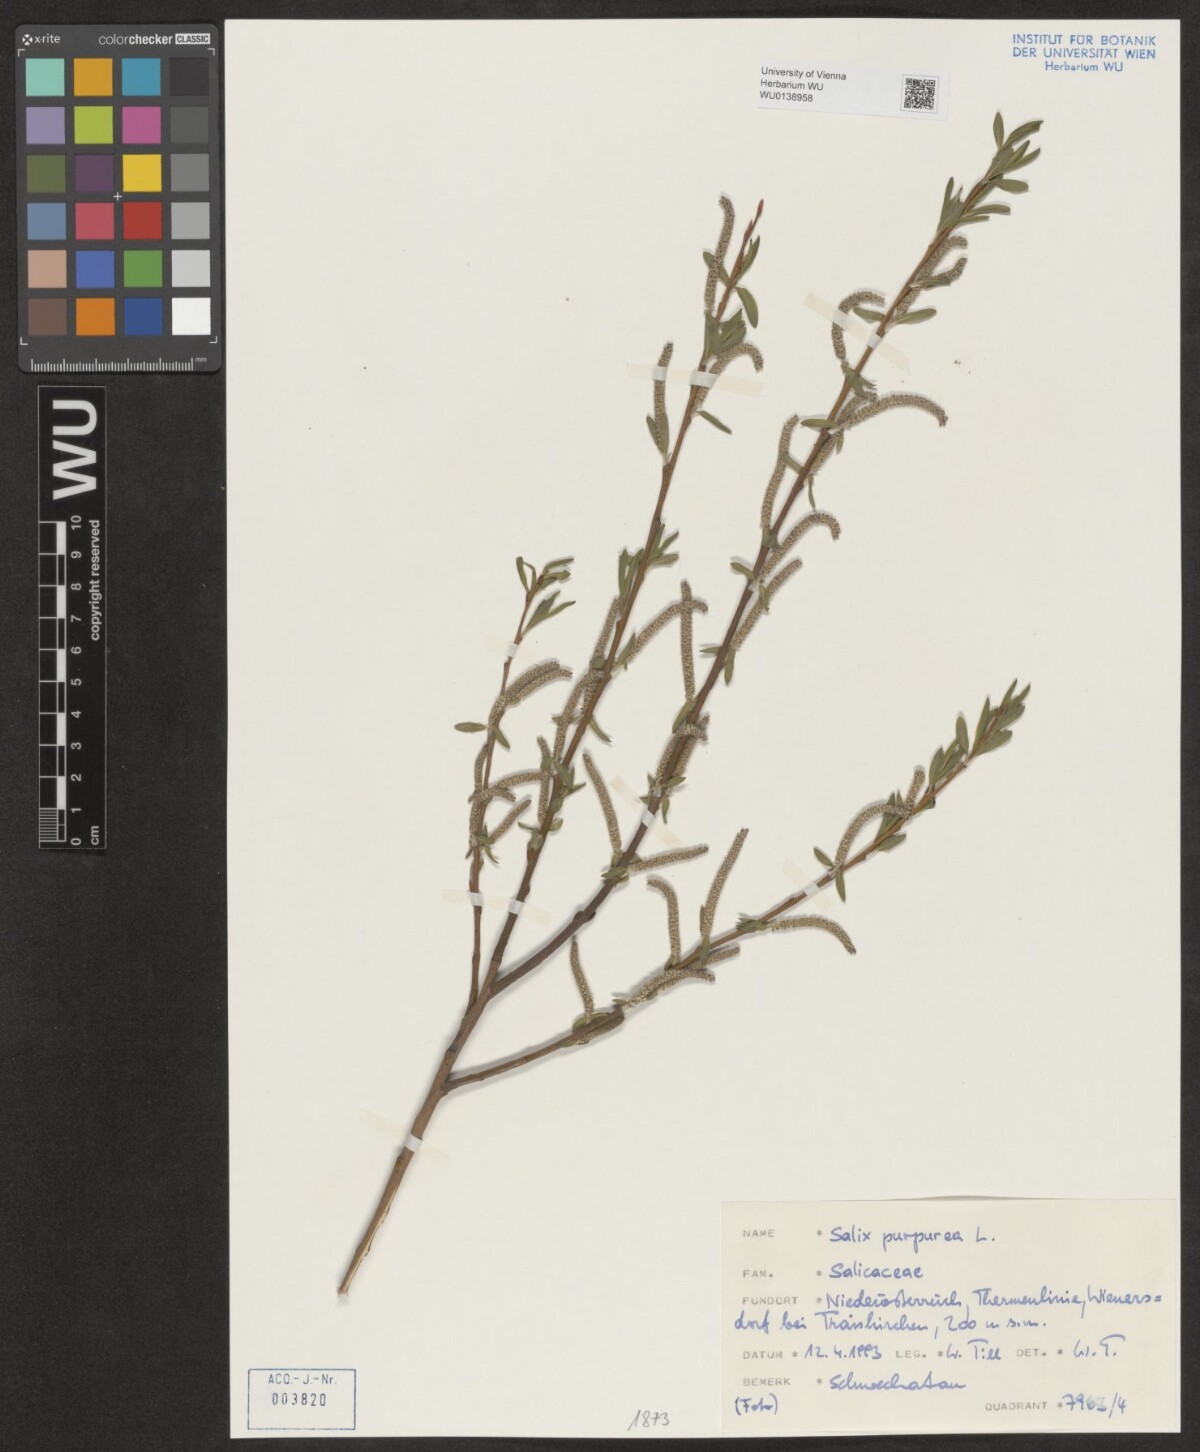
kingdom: Plantae
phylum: Tracheophyta
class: Magnoliopsida
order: Malpighiales
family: Salicaceae
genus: Salix
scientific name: Salix purpurea
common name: Purple willow
